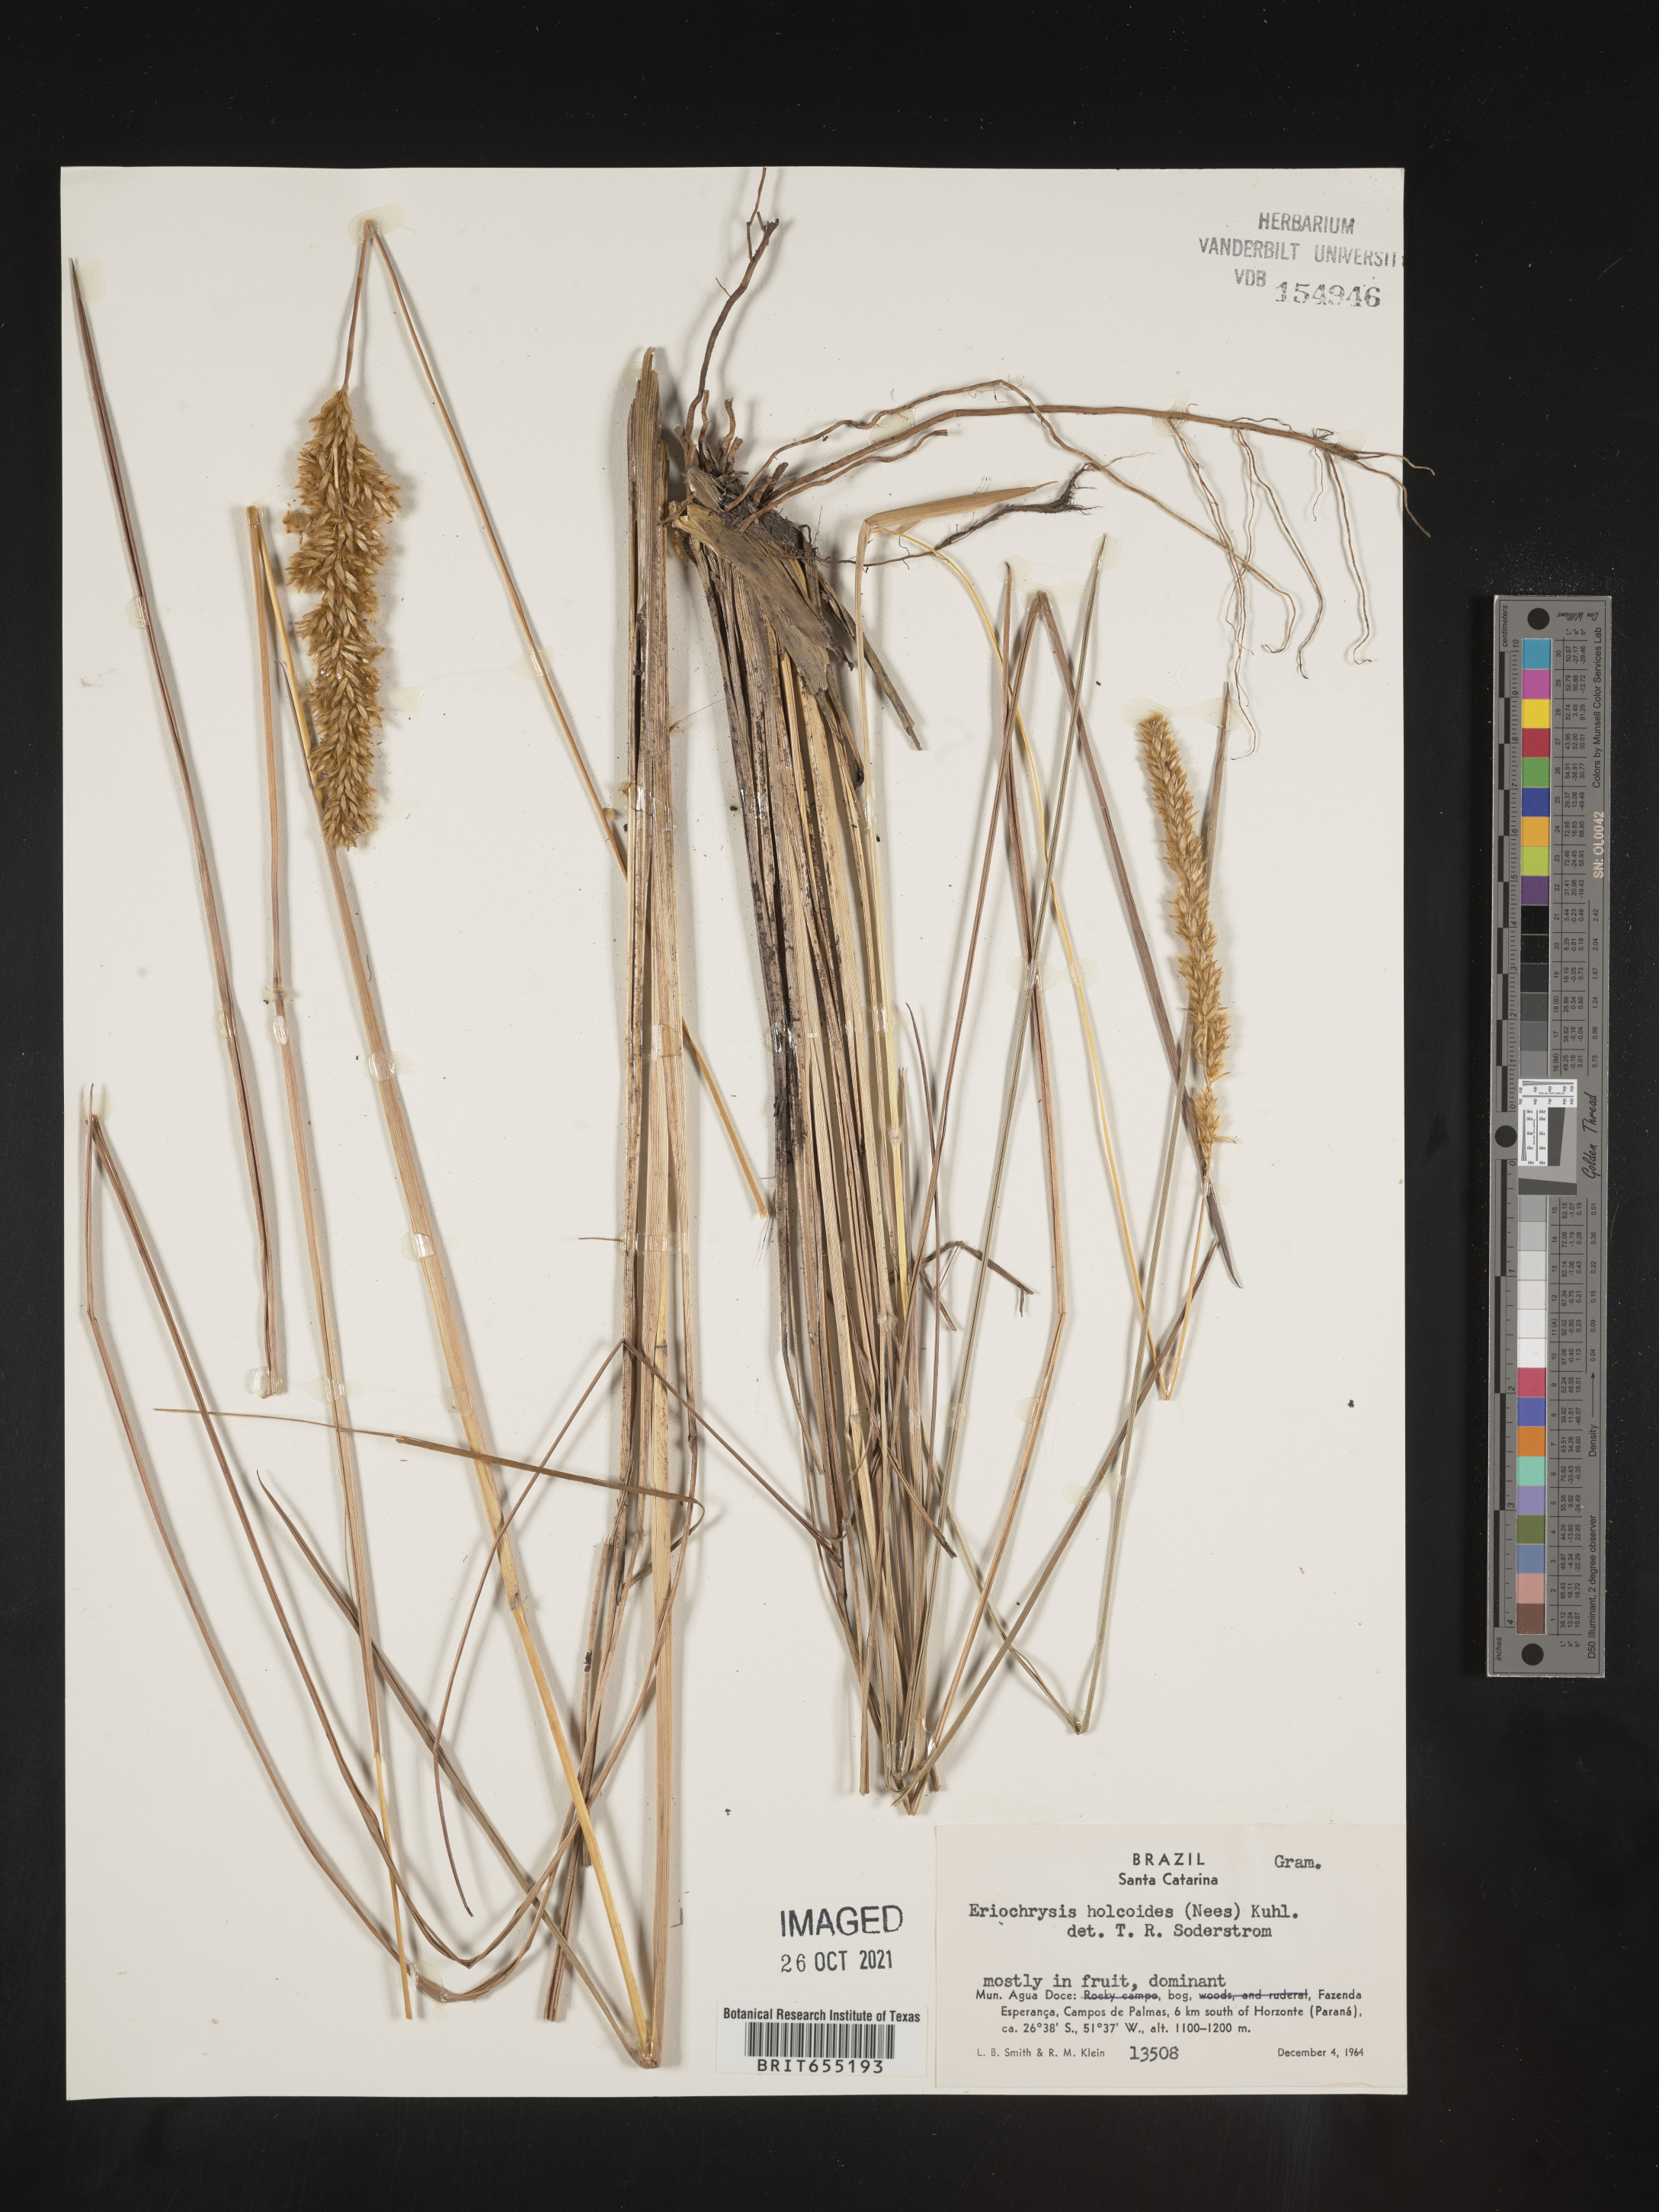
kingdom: Plantae
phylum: Tracheophyta
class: Liliopsida
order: Poales
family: Poaceae
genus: Eriochrysis
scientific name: Eriochrysis
